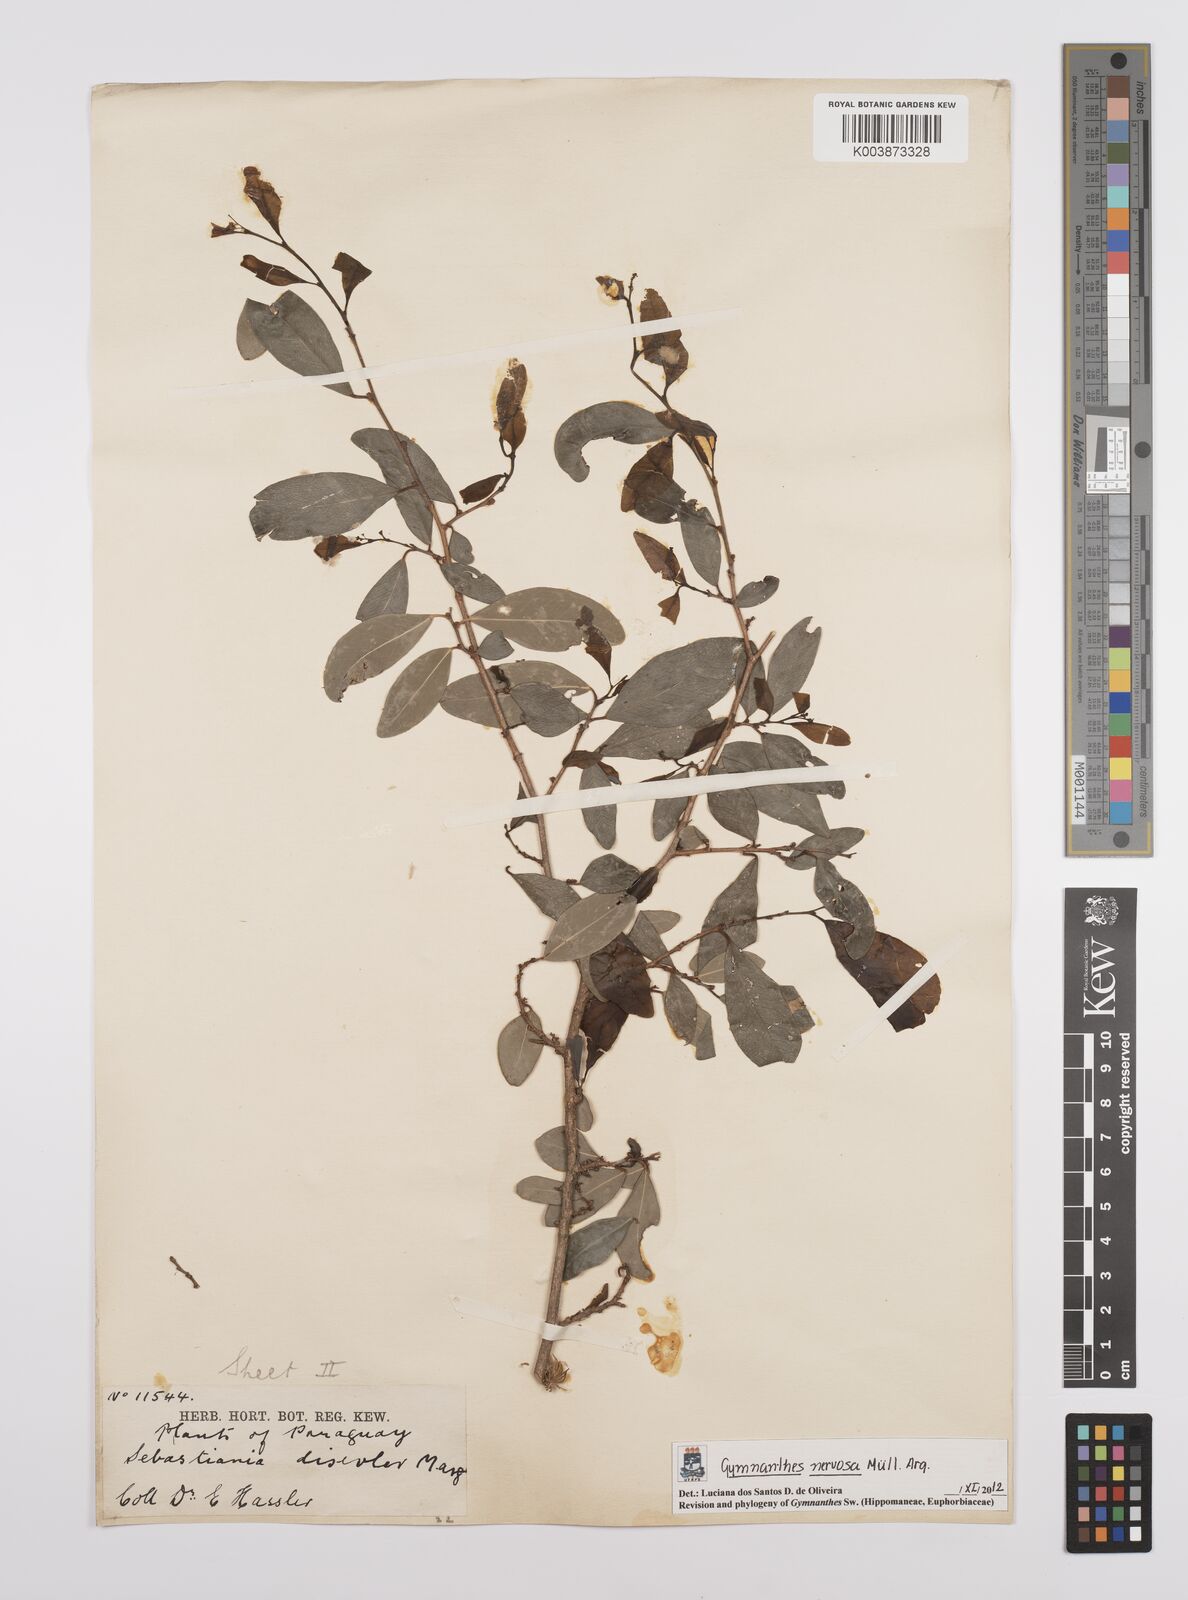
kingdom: Plantae
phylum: Tracheophyta
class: Magnoliopsida
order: Malpighiales
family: Euphorbiaceae
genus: Gymnanthes
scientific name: Gymnanthes nervosa
